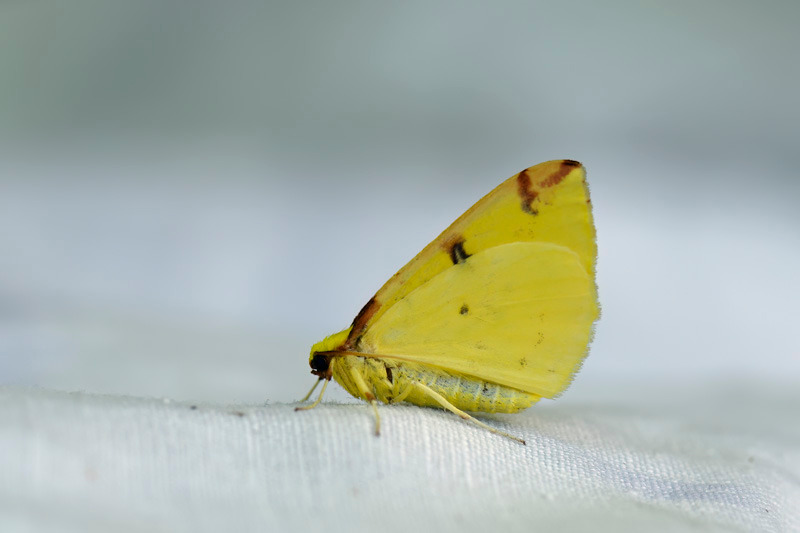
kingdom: Animalia
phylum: Arthropoda
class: Insecta
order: Lepidoptera
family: Geometridae
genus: Opisthograptis
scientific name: Opisthograptis luteolata
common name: Citronmåler
